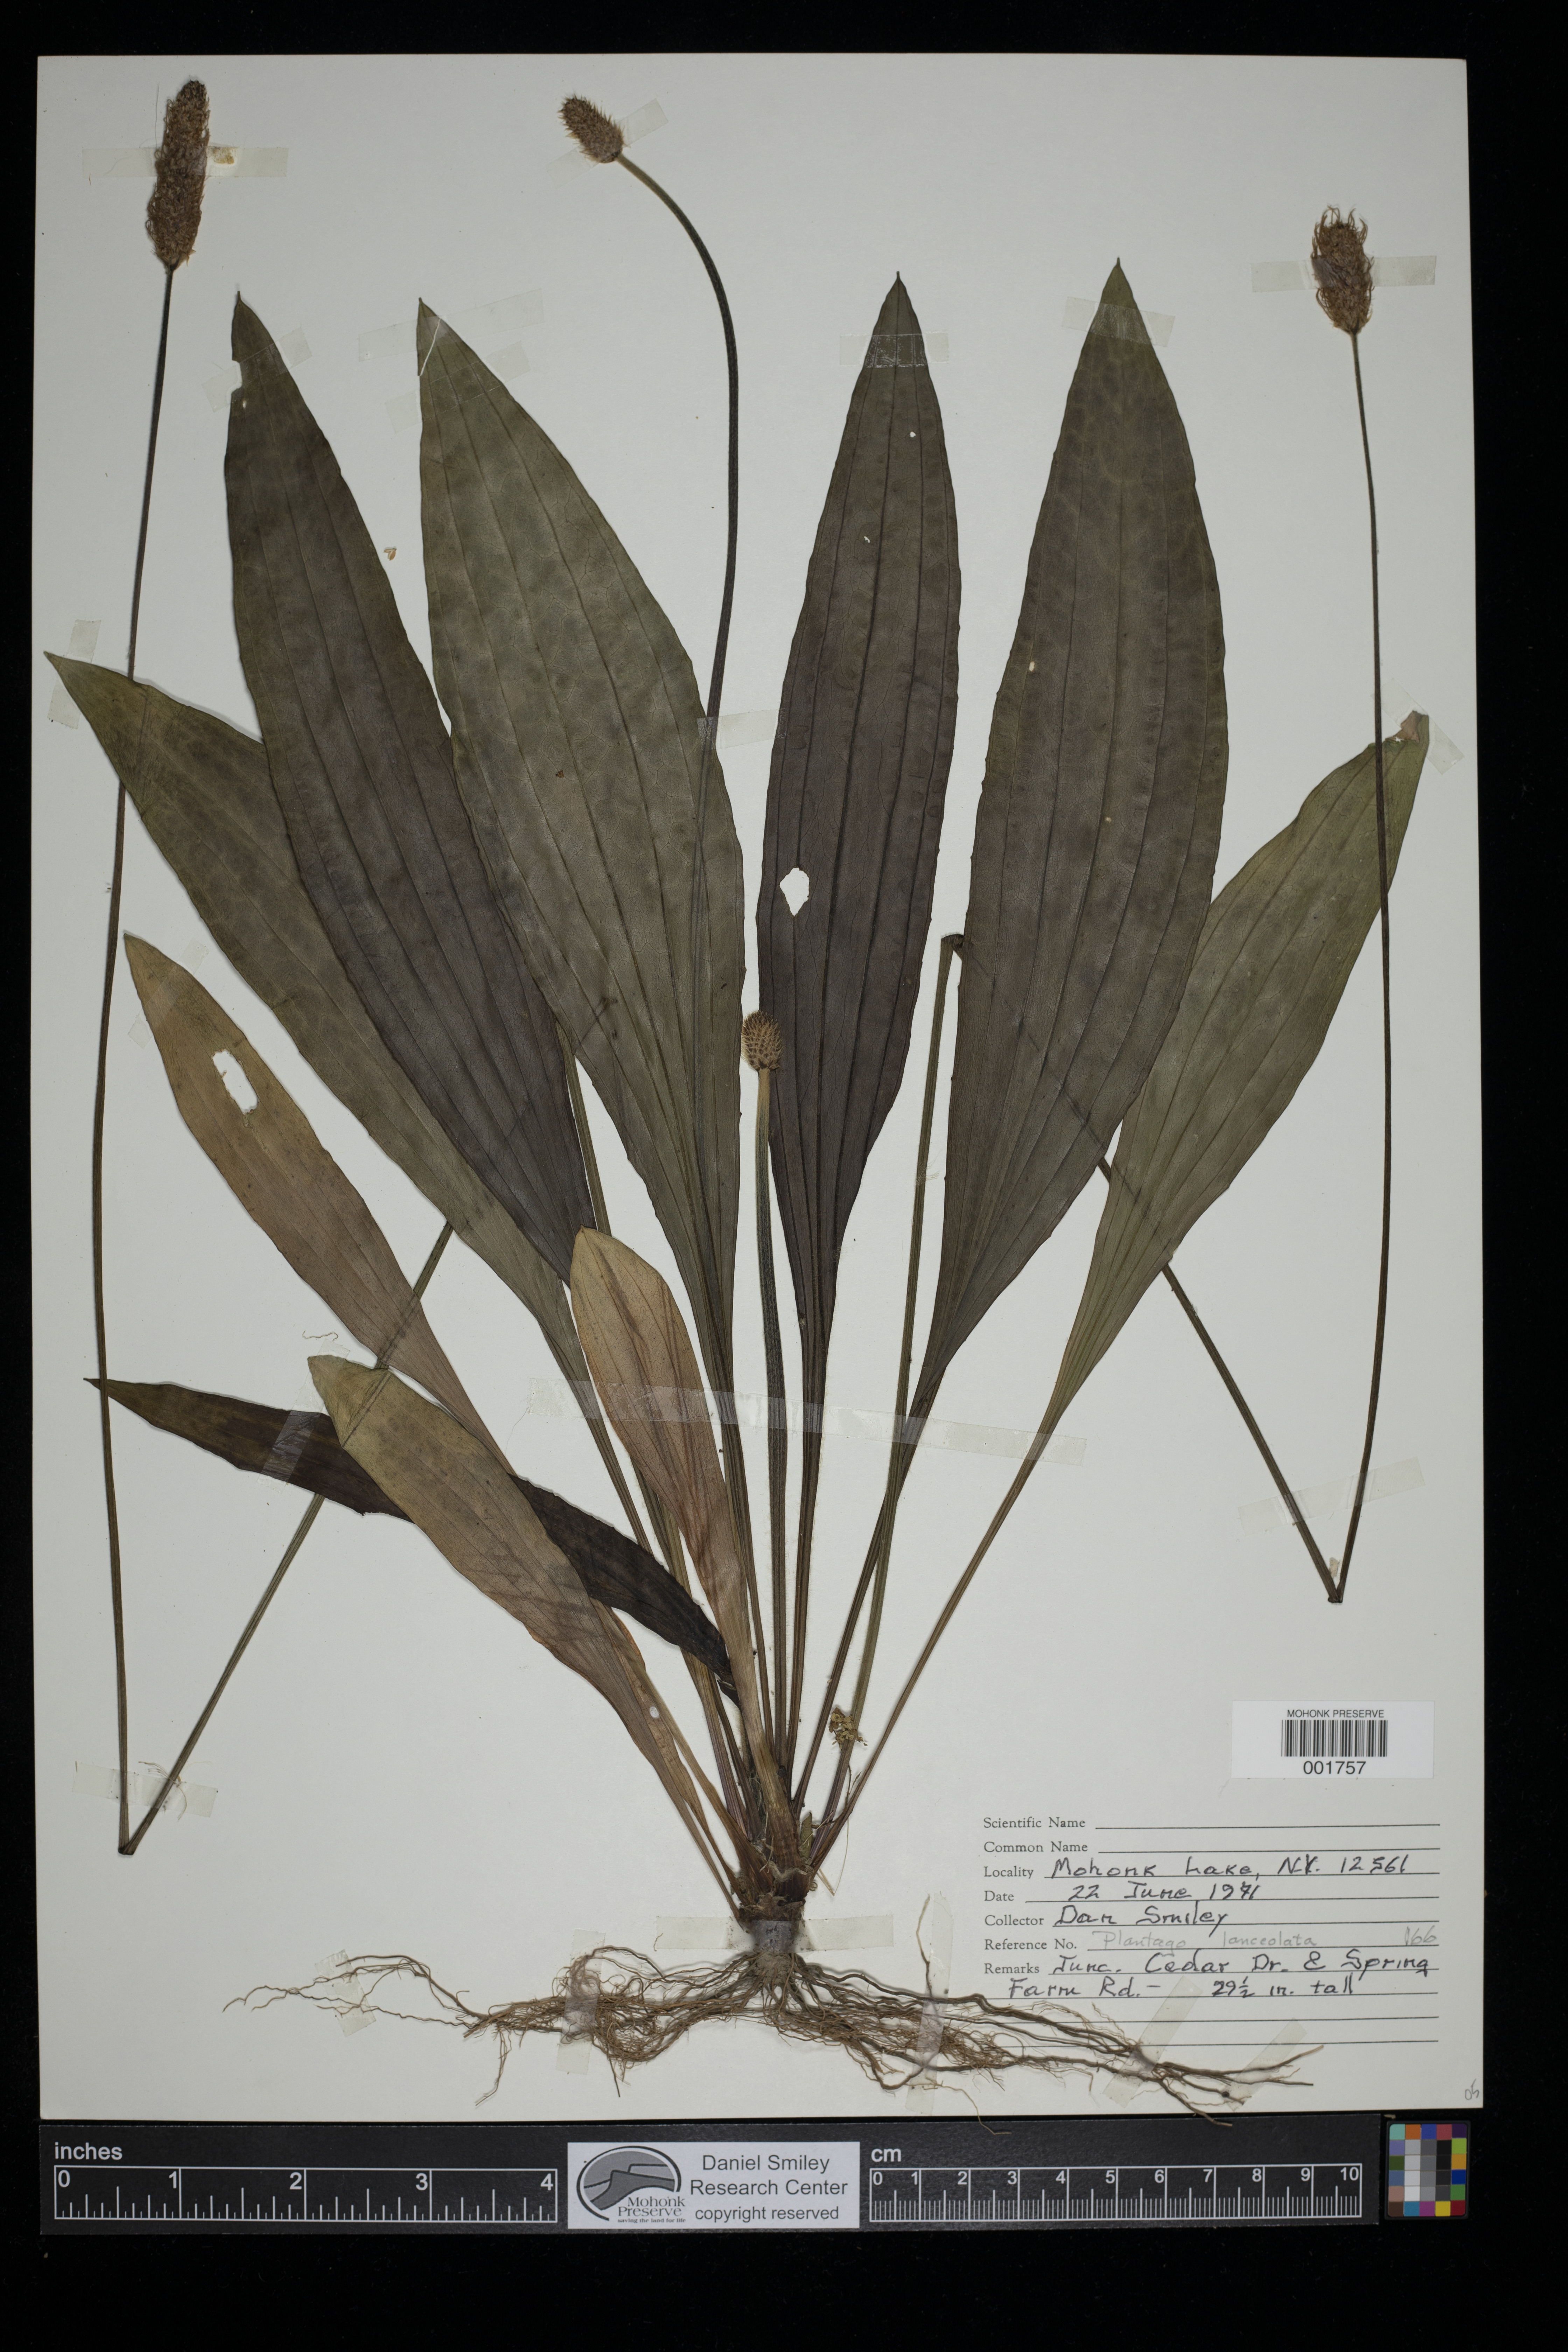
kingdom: Plantae
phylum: Tracheophyta
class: Magnoliopsida
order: Lamiales
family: Plantaginaceae
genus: Plantago
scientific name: Plantago lanceolata
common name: Ribwort plantain
